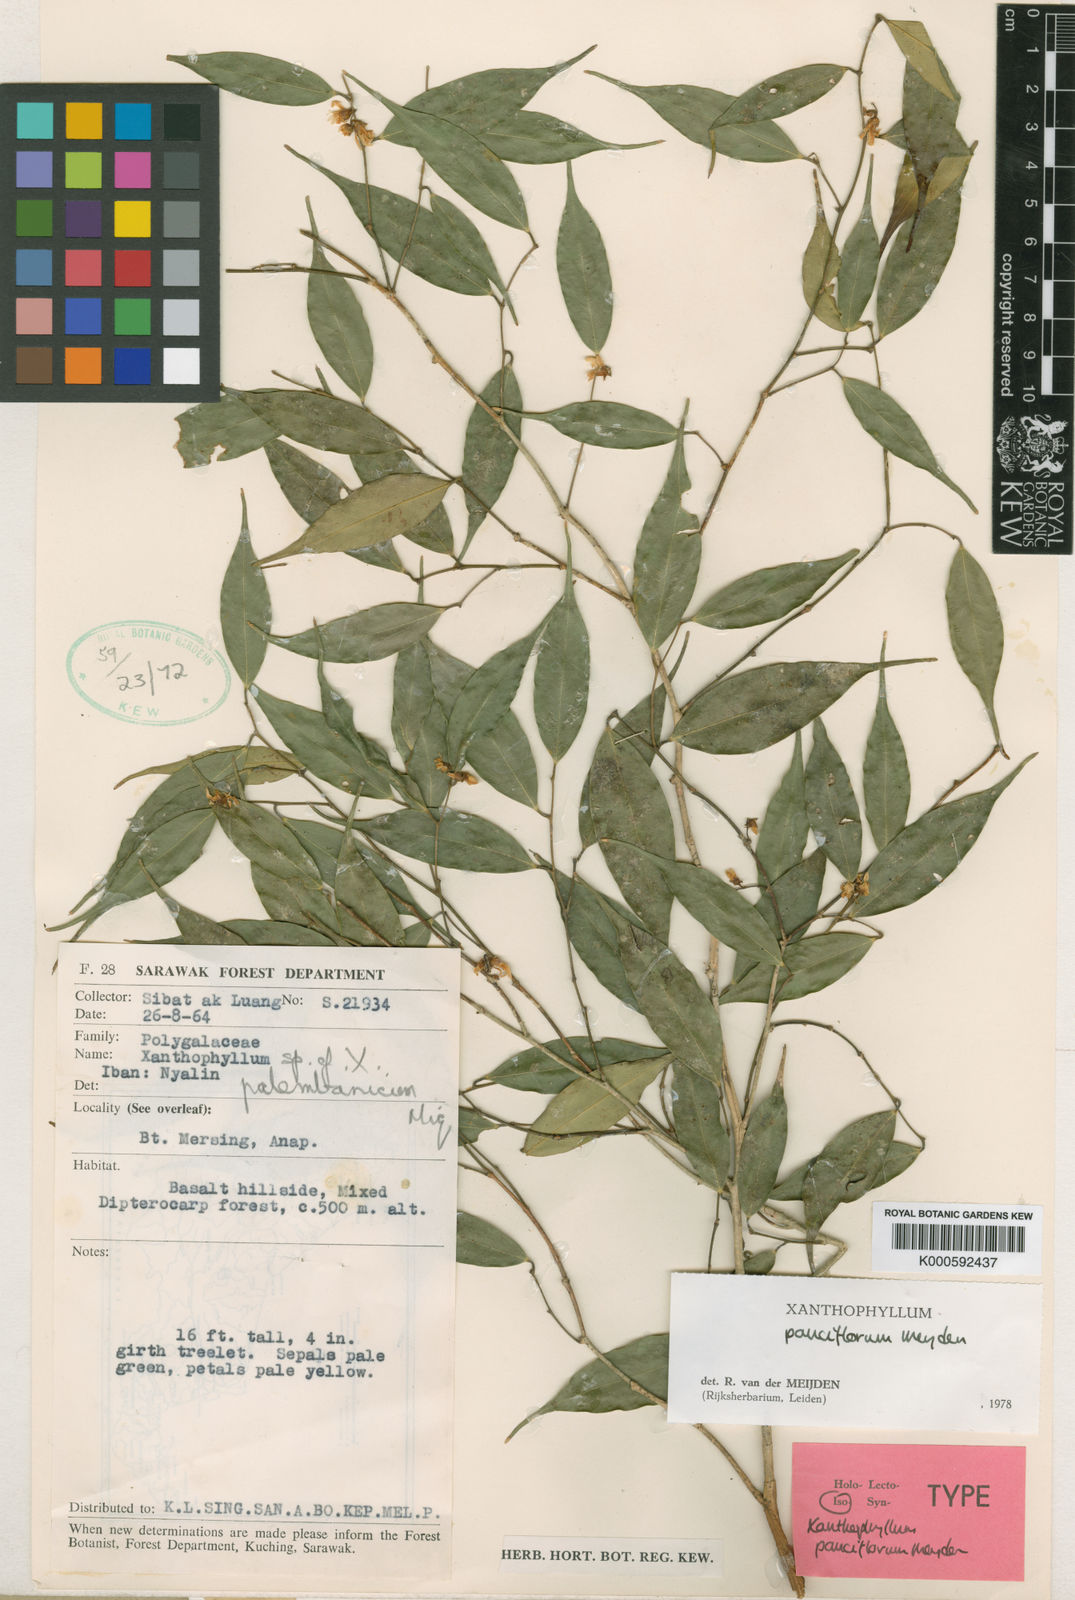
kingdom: Plantae
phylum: Tracheophyta
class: Magnoliopsida
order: Fabales
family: Polygalaceae
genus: Xanthophyllum
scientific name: Xanthophyllum pauciflorum
